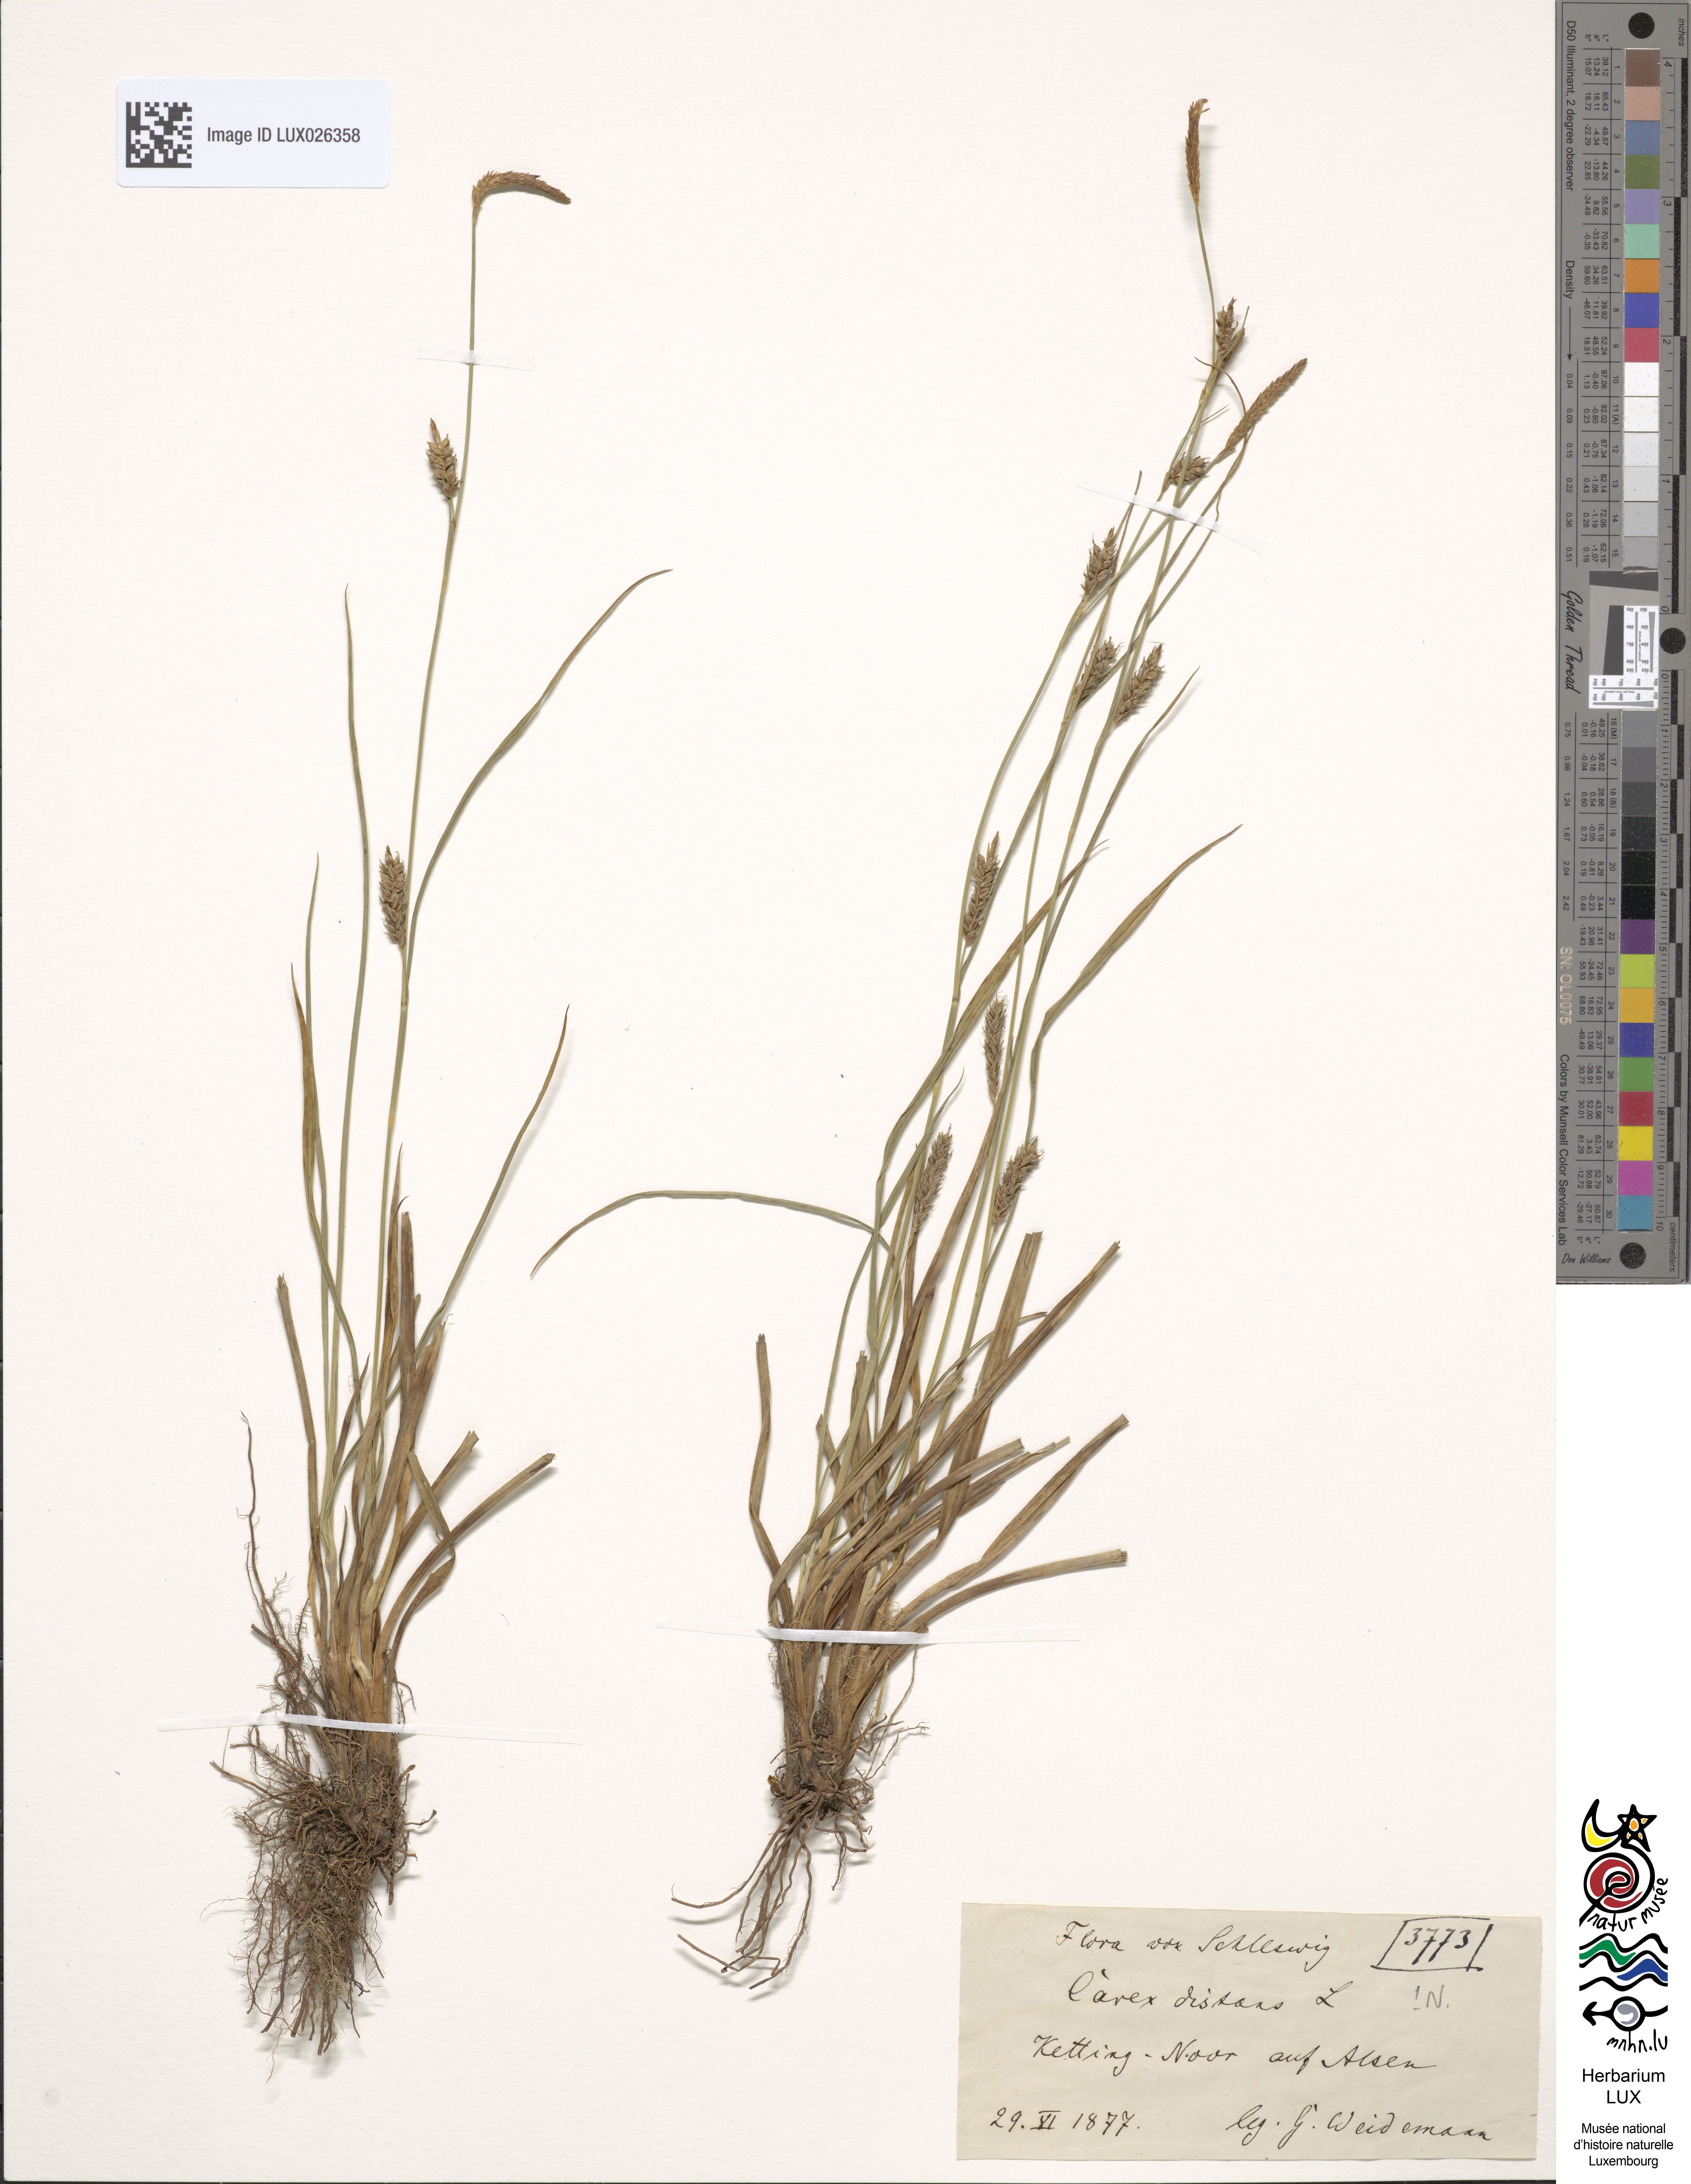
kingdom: Plantae
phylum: Tracheophyta
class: Liliopsida
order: Poales
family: Cyperaceae
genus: Carex
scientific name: Carex distans
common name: Distant sedge
